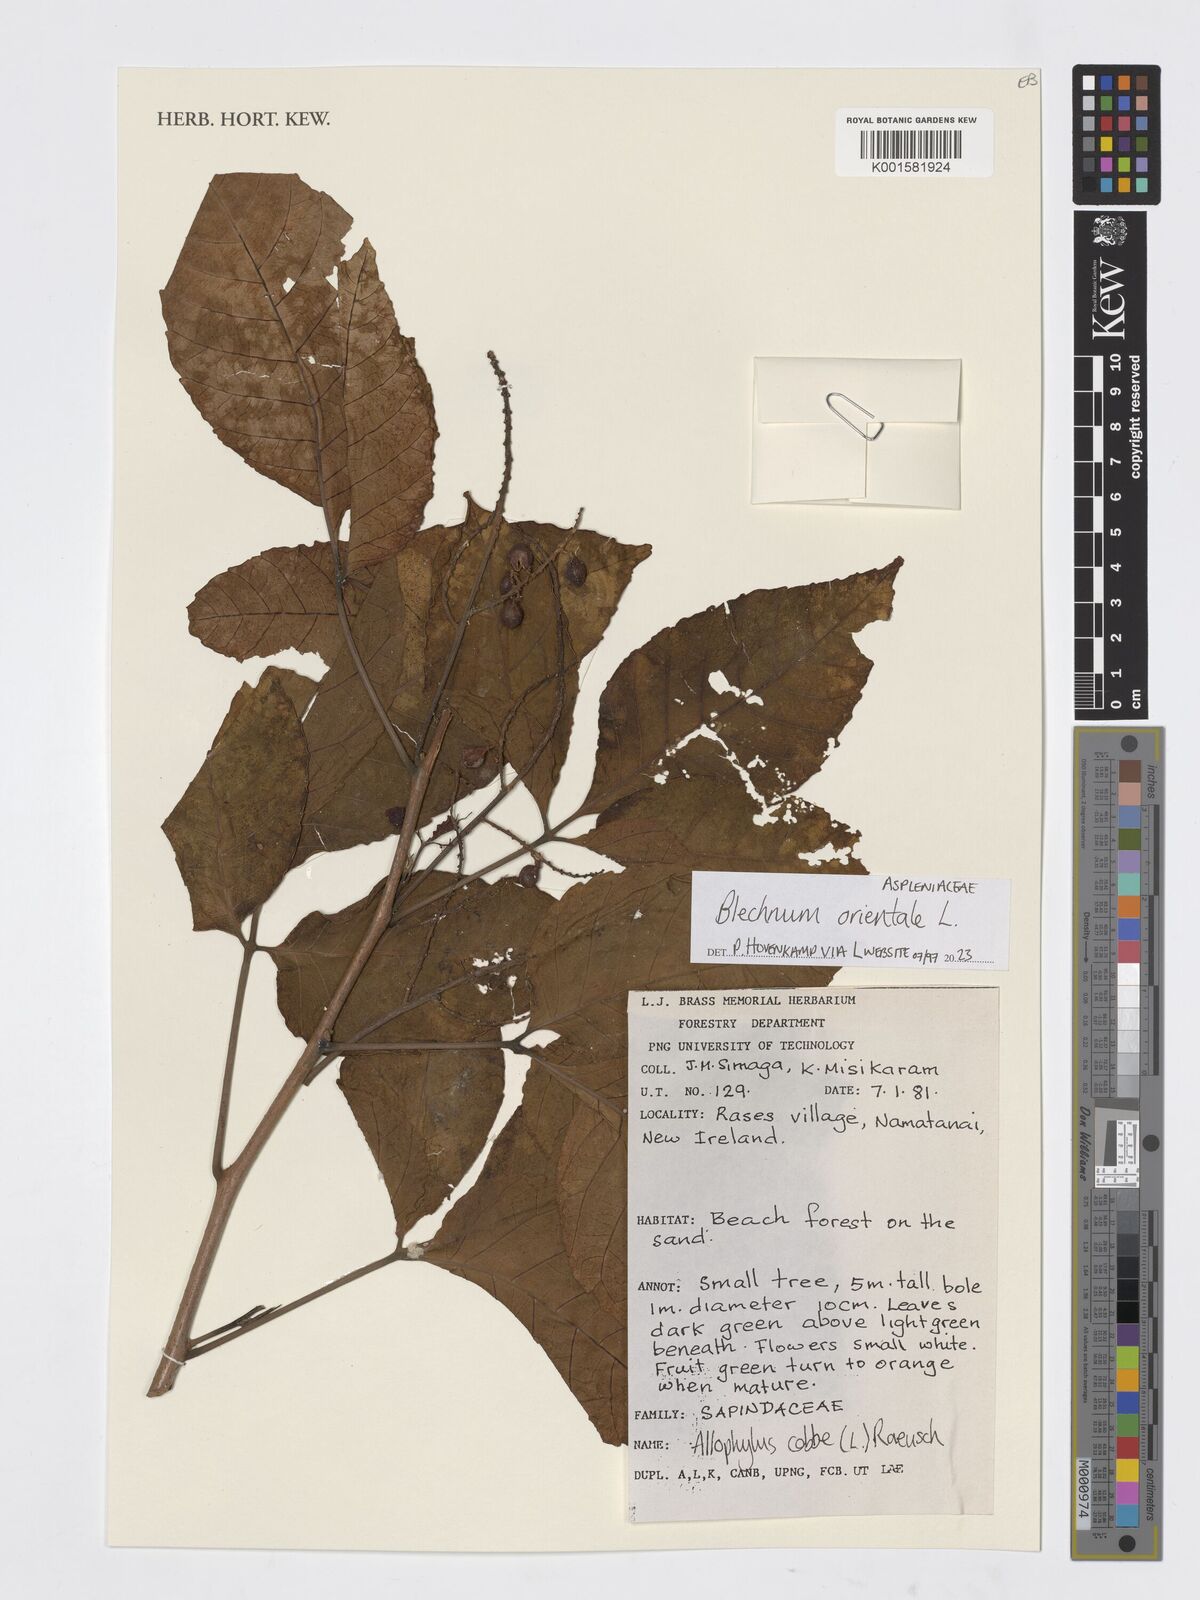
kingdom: Plantae
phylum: Tracheophyta
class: Polypodiopsida
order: Polypodiales
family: Blechnaceae
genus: Blechnopsis
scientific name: Blechnopsis orientalis
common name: Oriental blechnum
